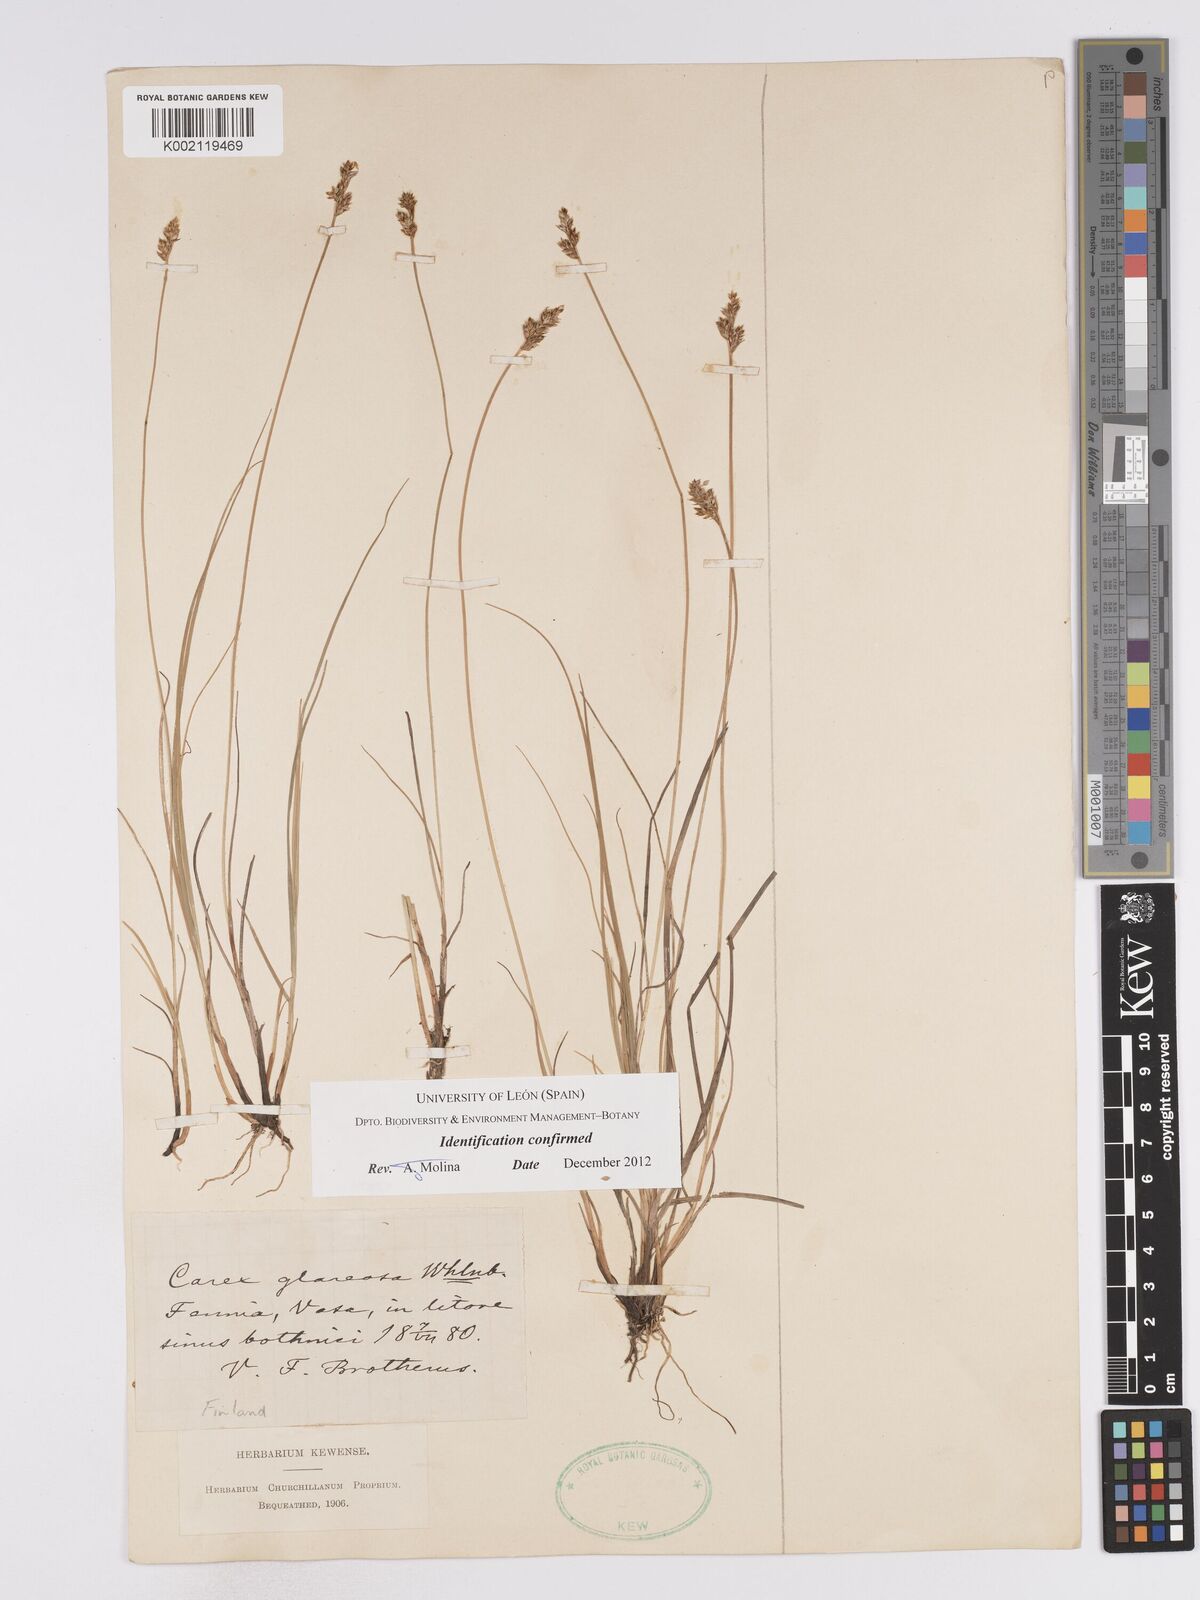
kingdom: Plantae
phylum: Tracheophyta
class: Liliopsida
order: Poales
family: Cyperaceae
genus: Carex
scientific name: Carex glareosa
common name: Clustered sedge
